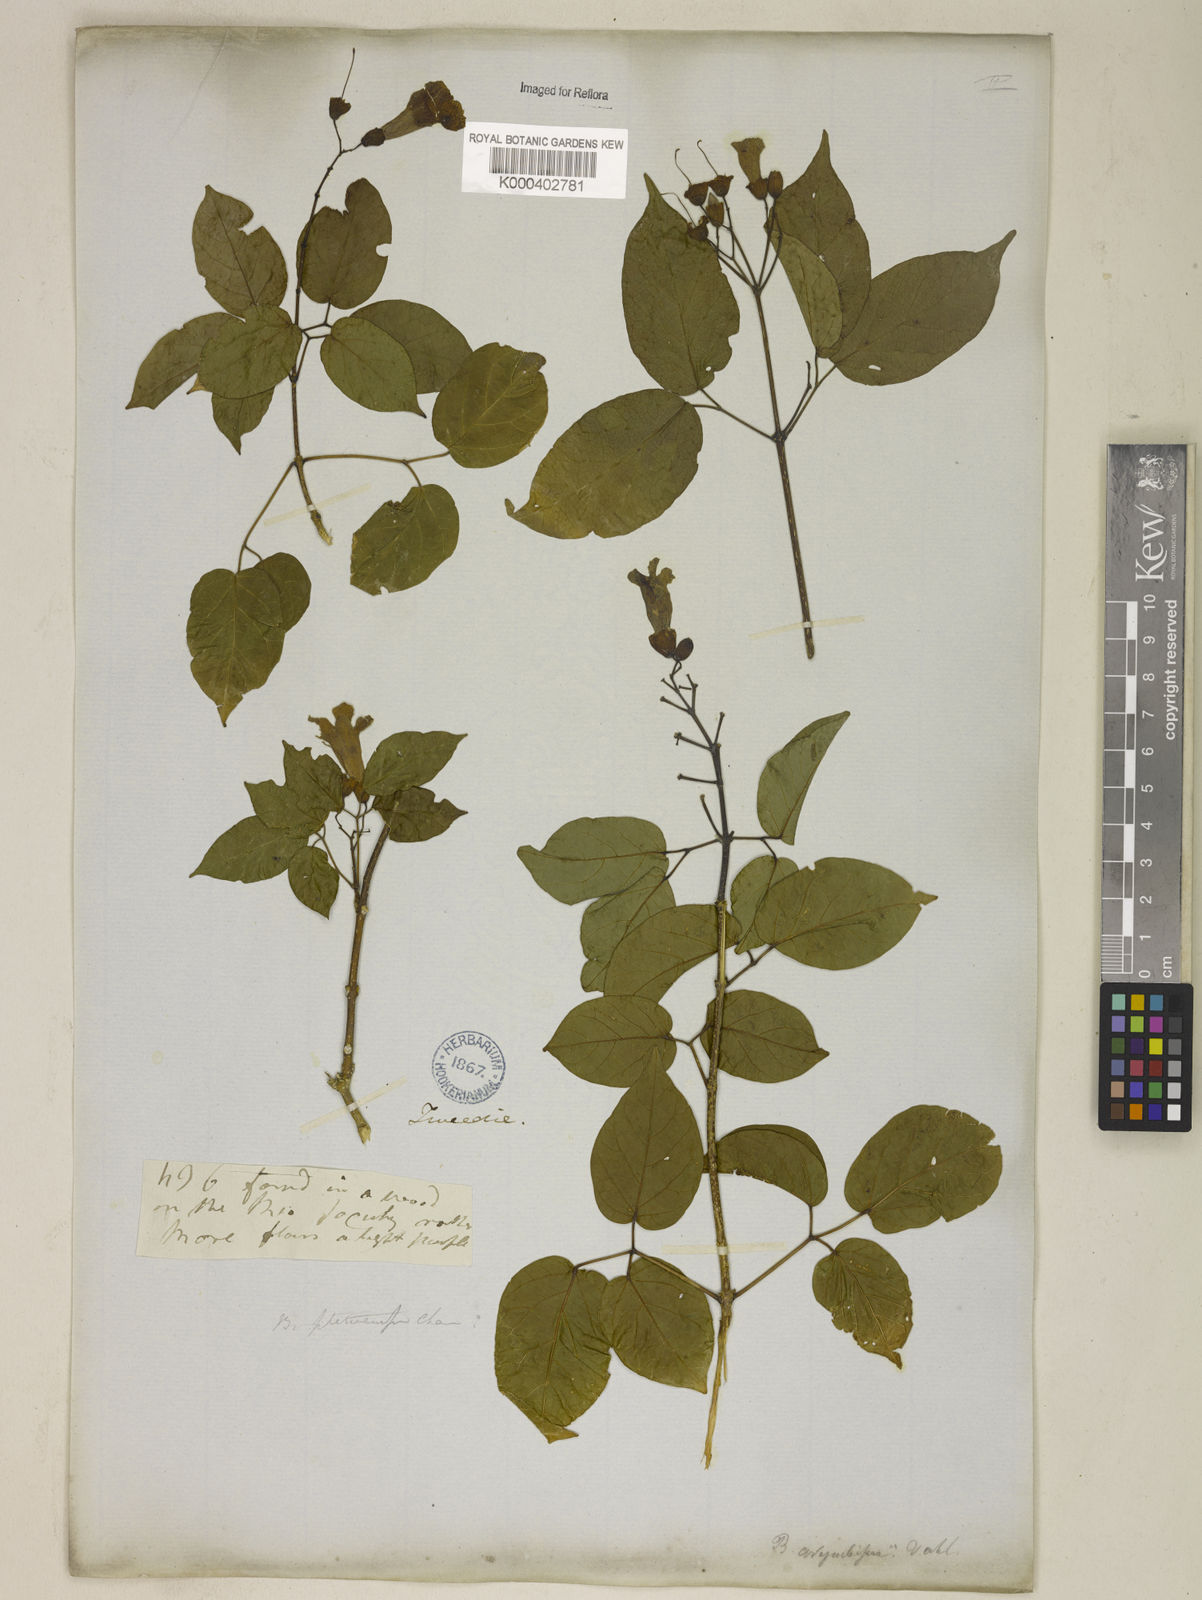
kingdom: Plantae
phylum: Tracheophyta
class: Magnoliopsida
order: Lamiales
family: Bignoniaceae
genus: Tanaecium
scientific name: Tanaecium selloi
